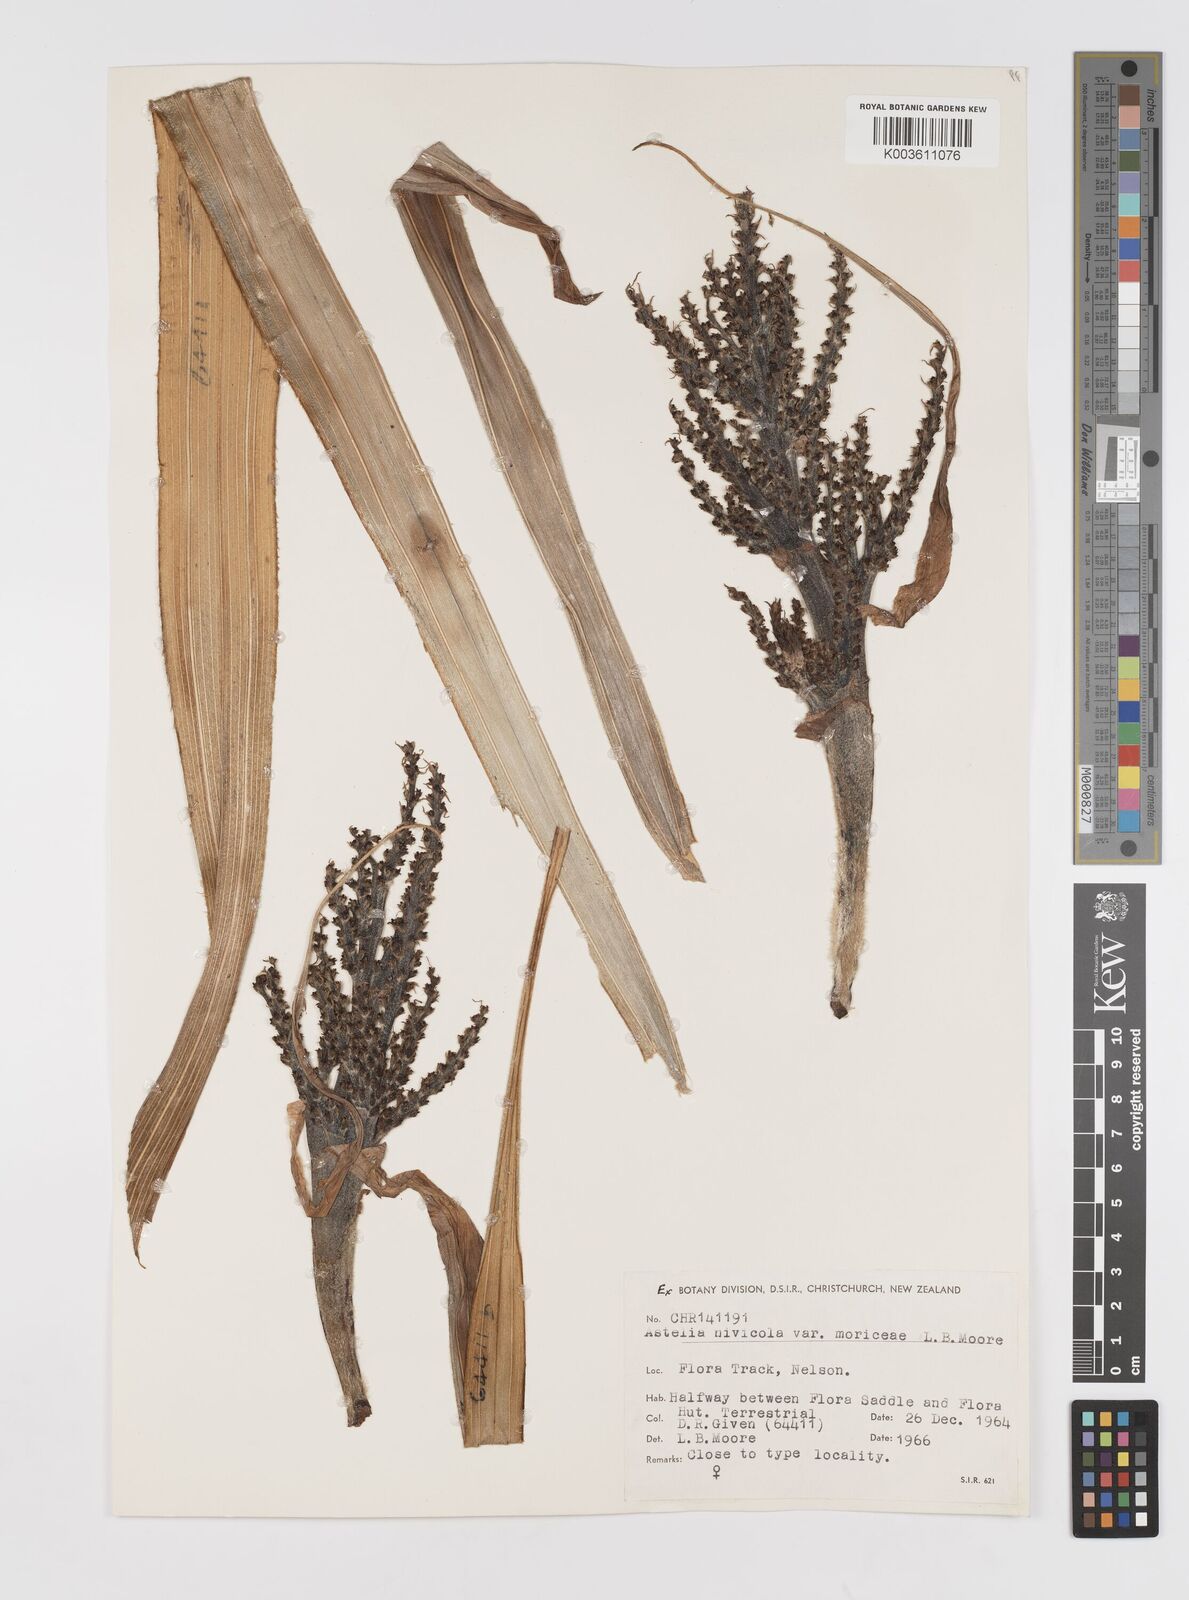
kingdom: Plantae
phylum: Tracheophyta
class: Liliopsida
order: Asparagales
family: Asteliaceae
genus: Astelia
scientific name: Astelia
